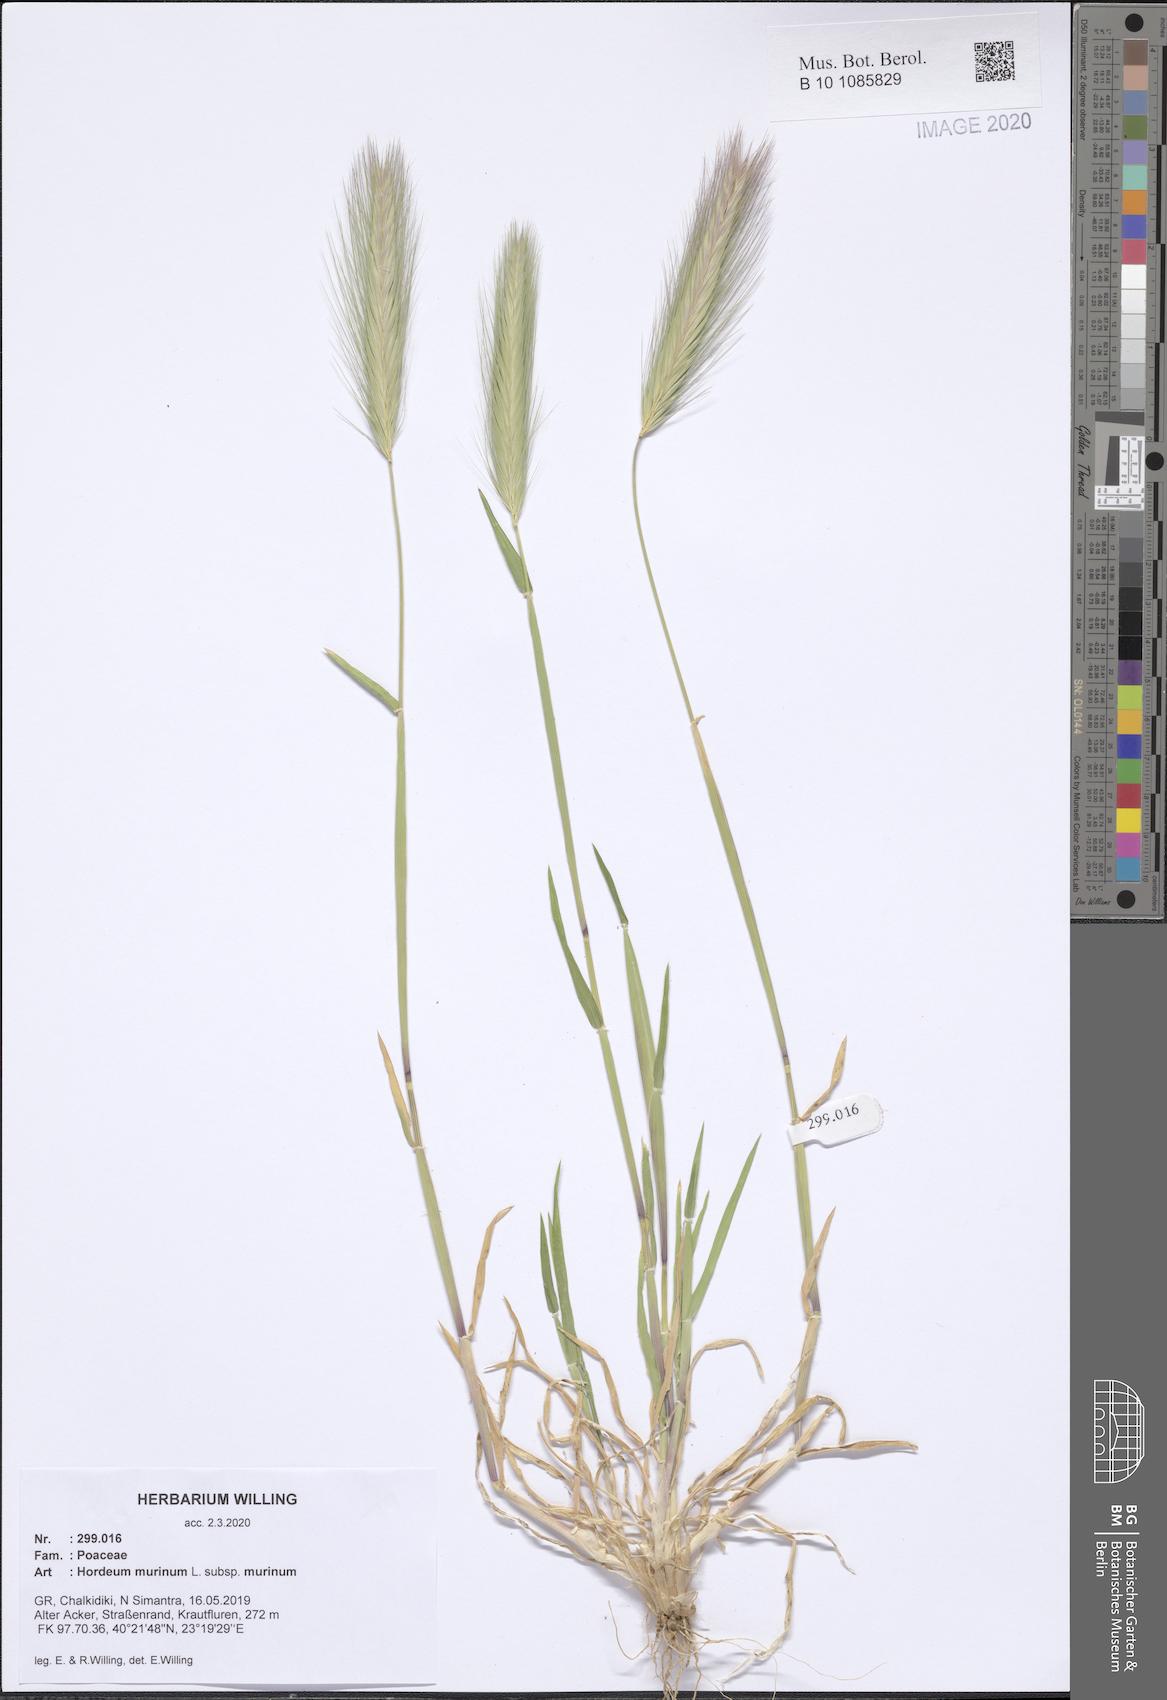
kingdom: Plantae
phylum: Tracheophyta
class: Liliopsida
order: Poales
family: Poaceae
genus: Hordeum
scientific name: Hordeum murinum
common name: Wall barley
